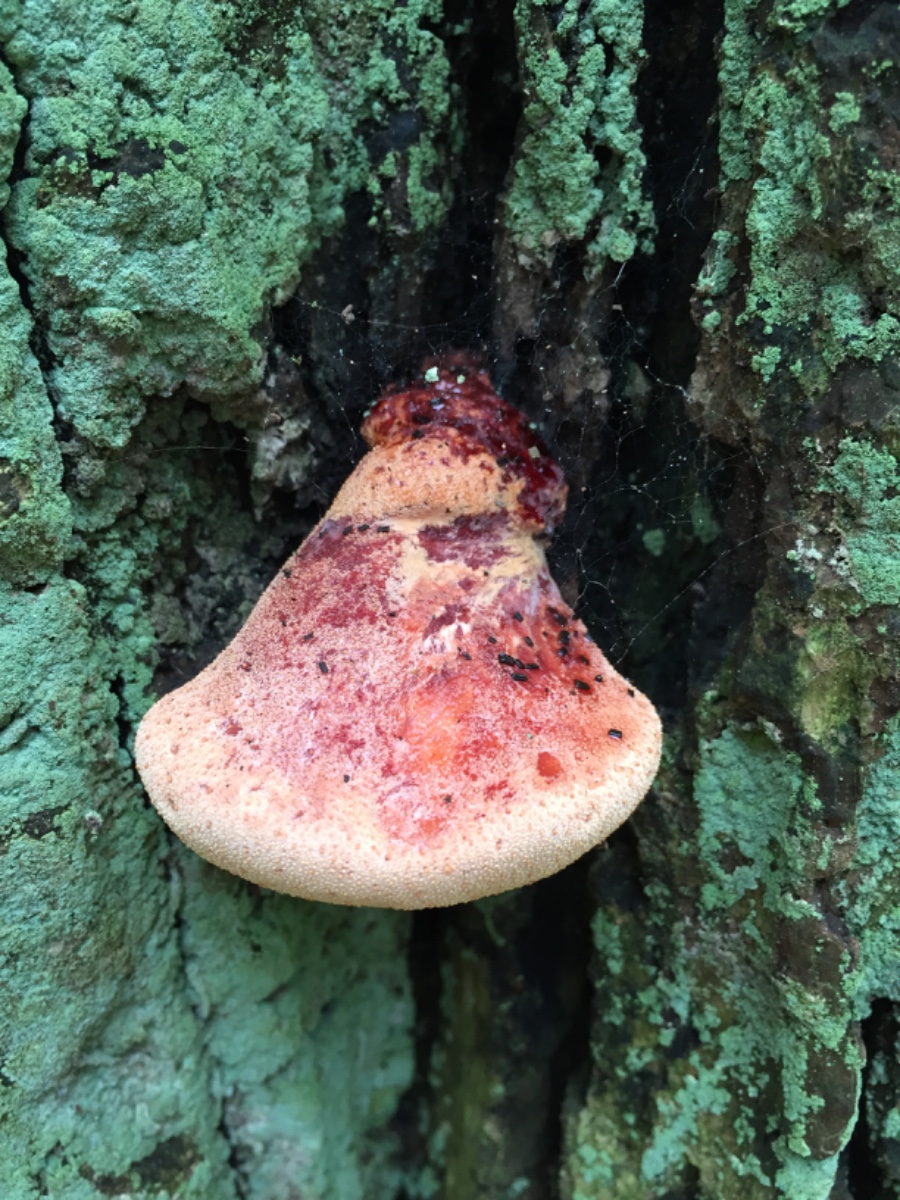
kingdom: Fungi
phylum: Basidiomycota
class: Agaricomycetes
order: Agaricales
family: Fistulinaceae
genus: Fistulina
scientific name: Fistulina hepatica
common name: oksetunge
